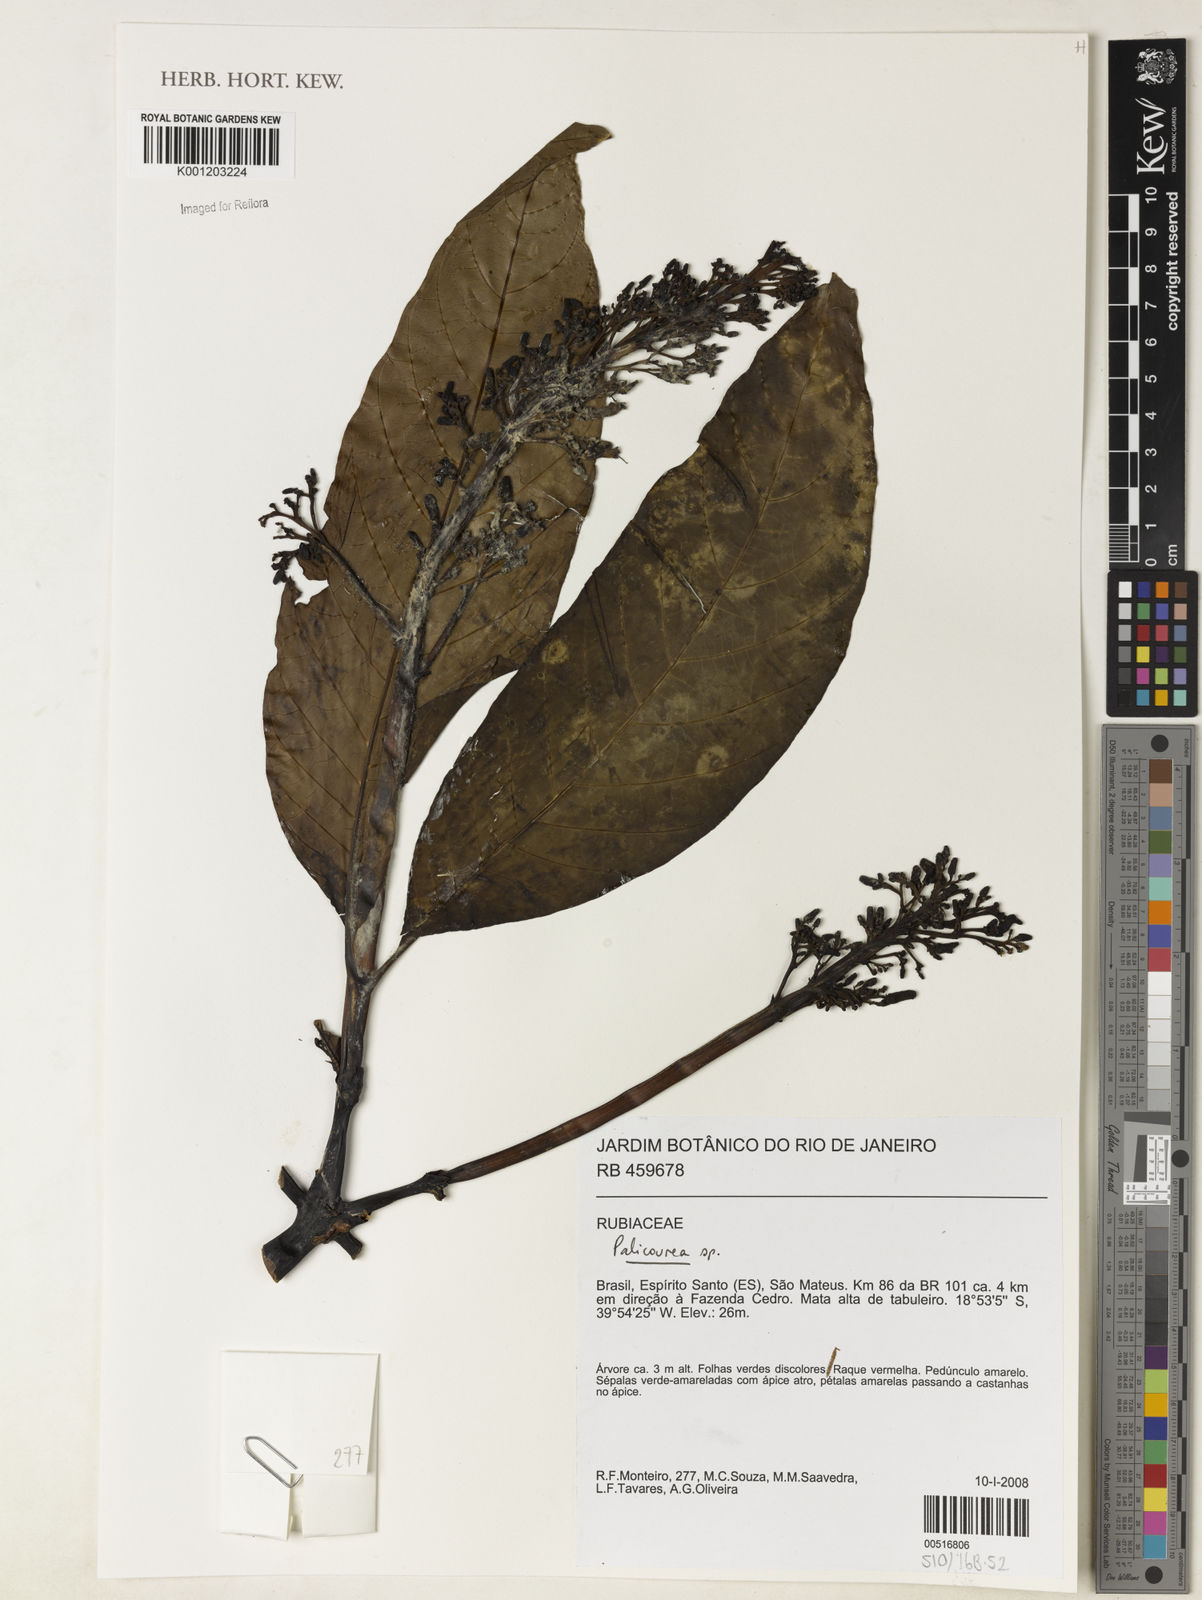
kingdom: Plantae
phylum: Tracheophyta
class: Magnoliopsida
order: Gentianales
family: Rubiaceae
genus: Palicourea
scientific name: Palicourea
